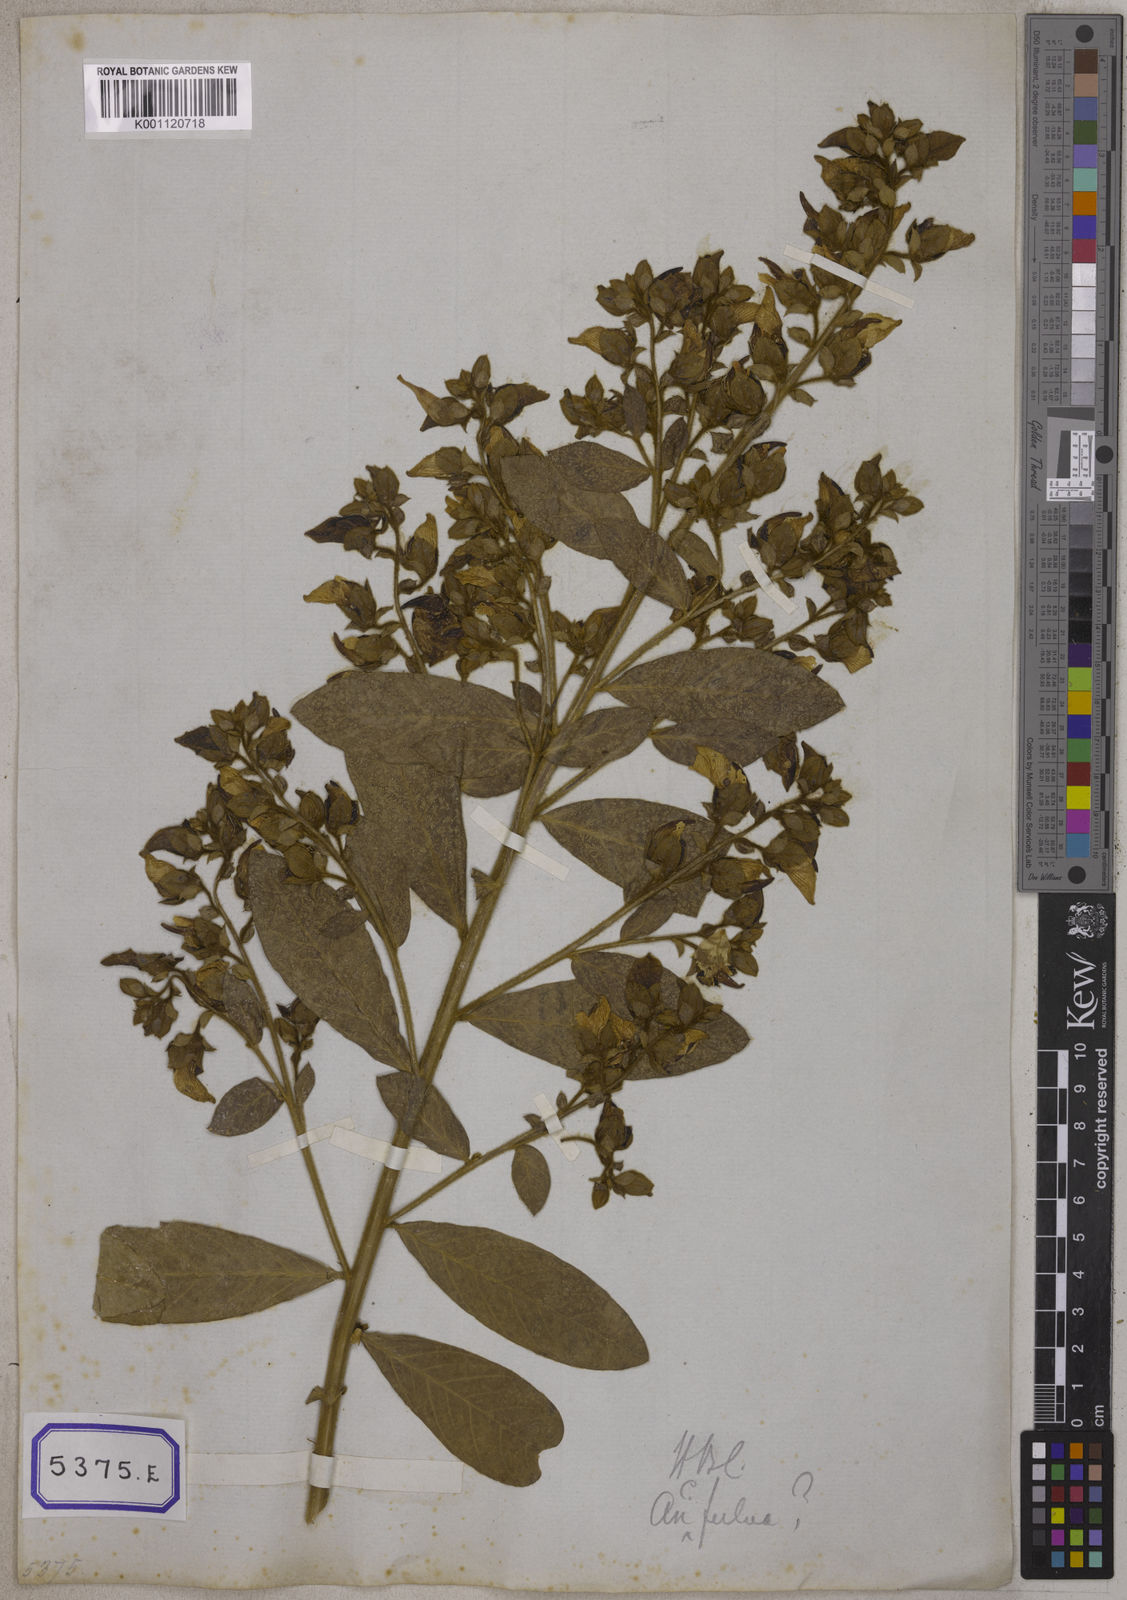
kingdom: Plantae
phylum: Tracheophyta
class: Magnoliopsida
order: Fabales
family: Fabaceae
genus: Crotalaria
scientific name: Crotalaria berteroana
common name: Berteron's rattlebox
